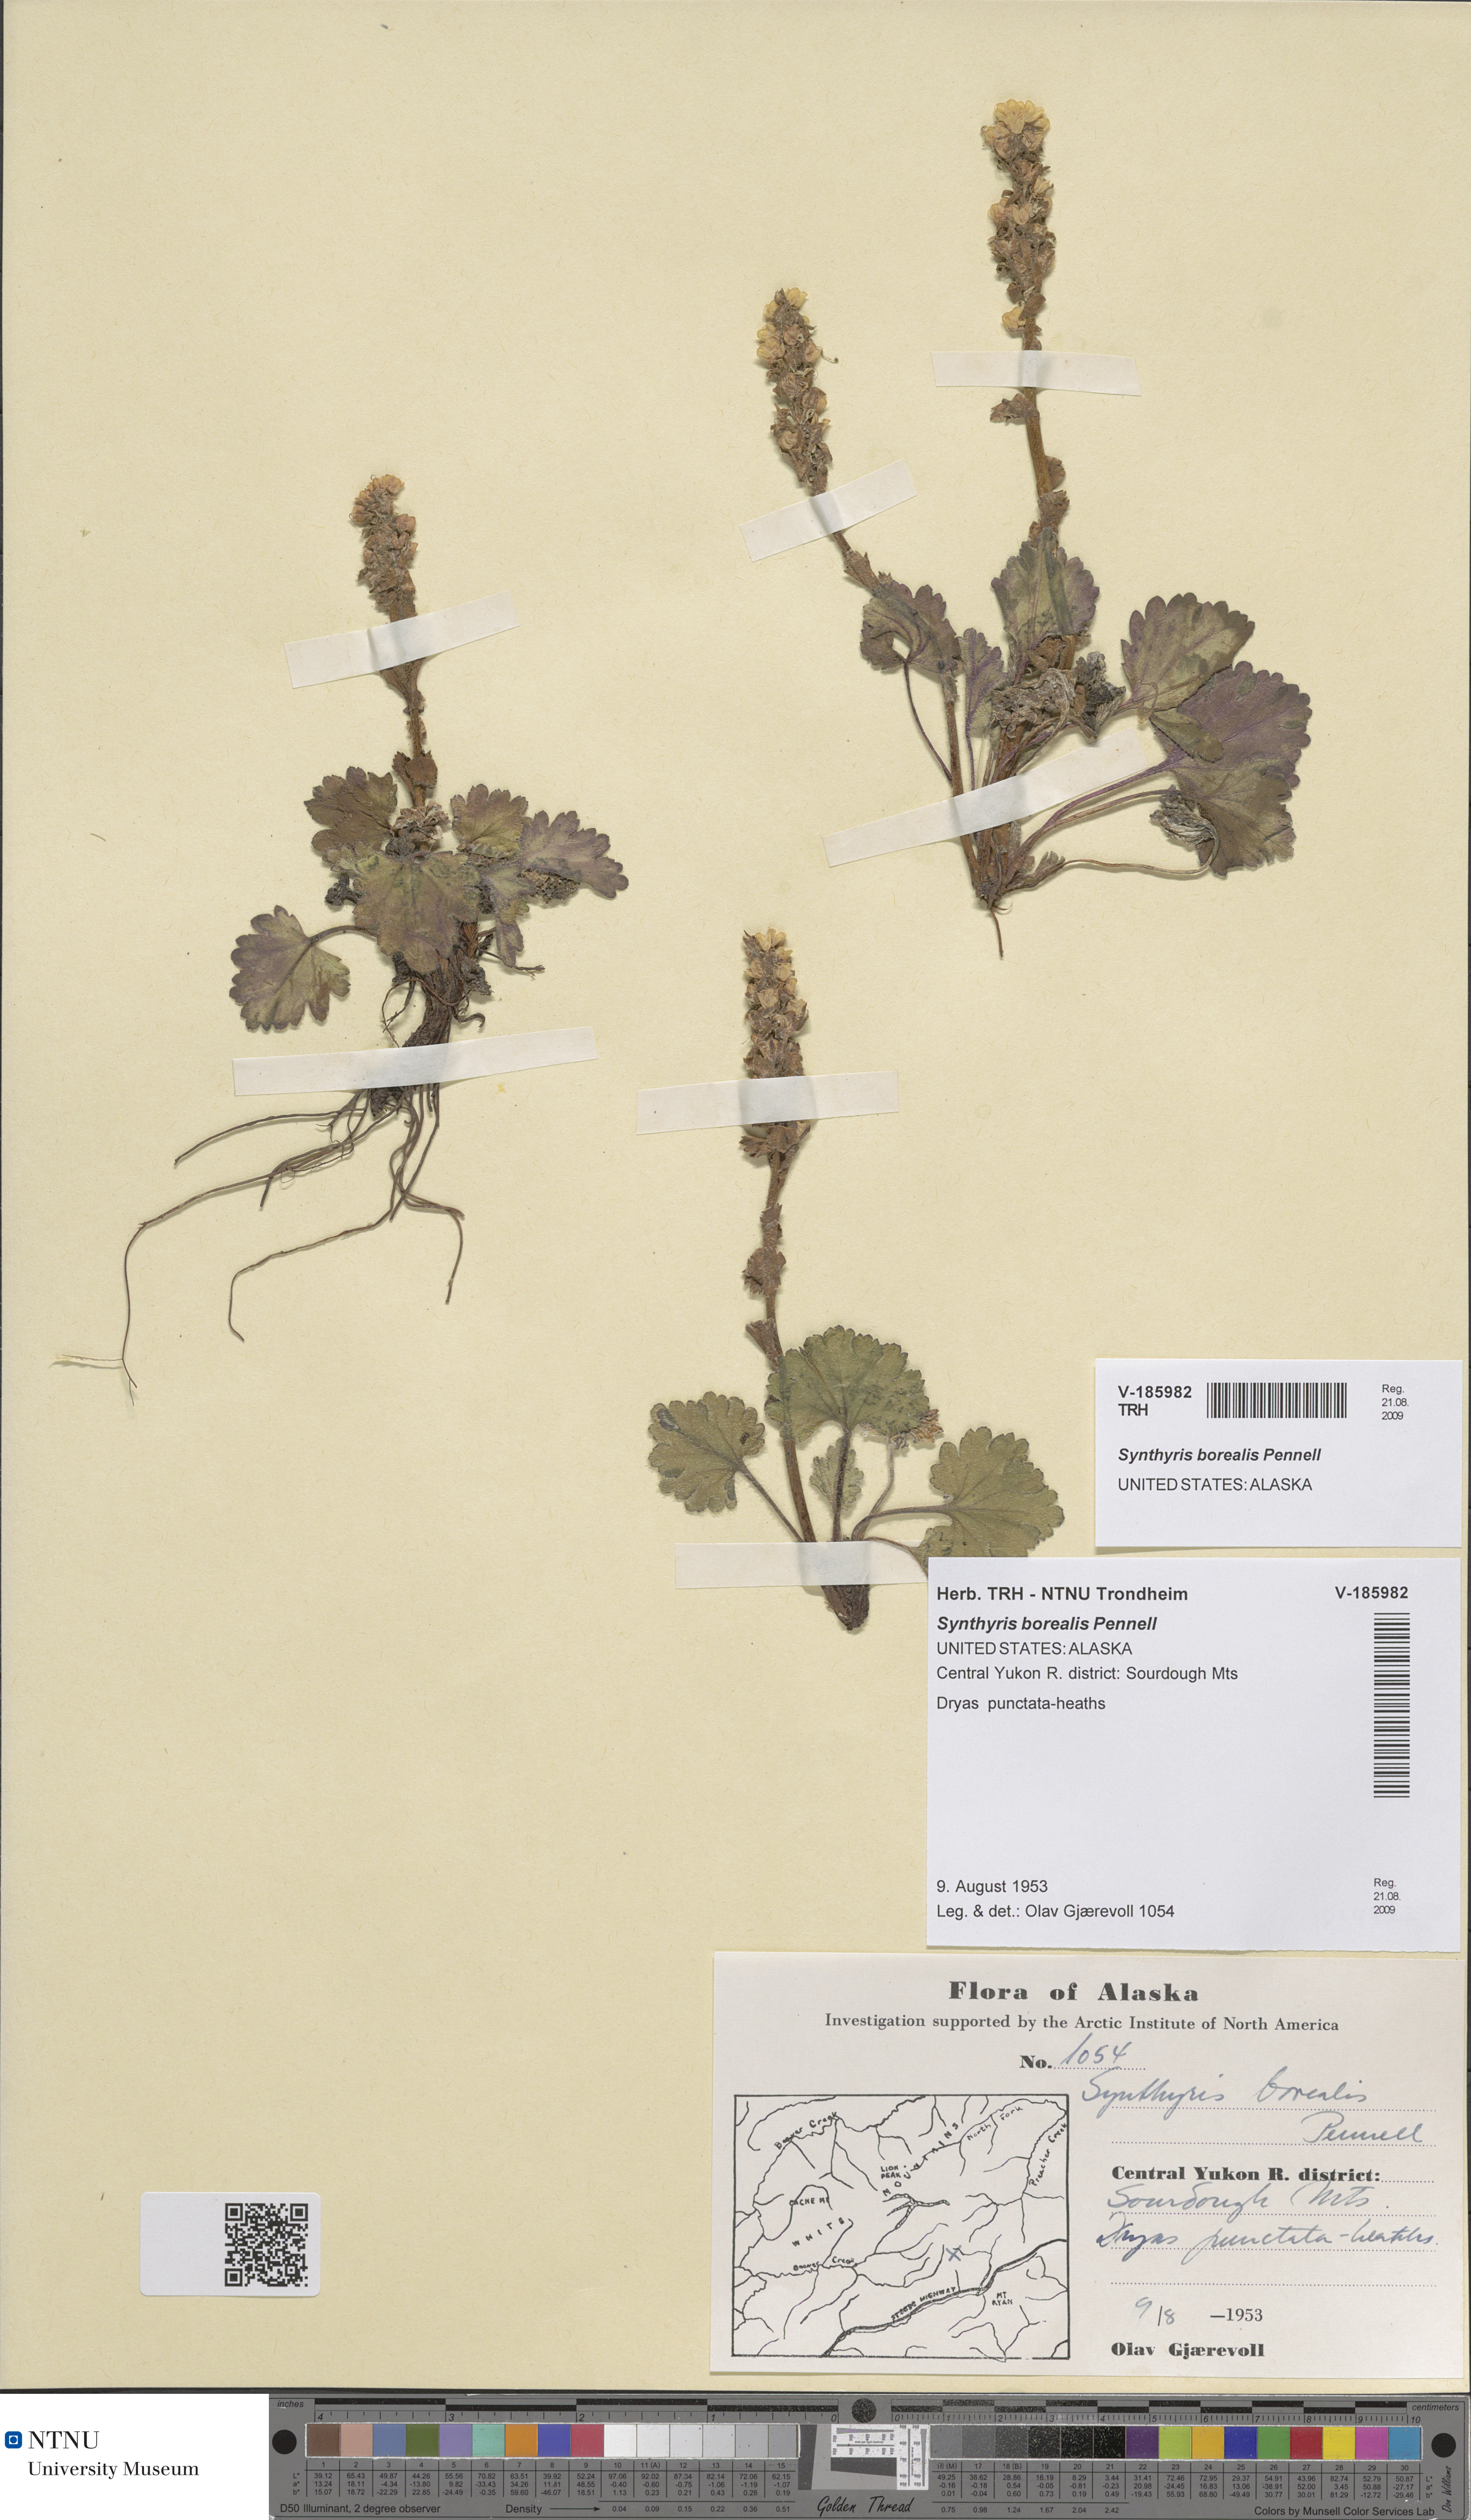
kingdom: Plantae
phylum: Tracheophyta
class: Magnoliopsida
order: Lamiales
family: Plantaginaceae
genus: Synthyris
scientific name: Synthyris borealis
